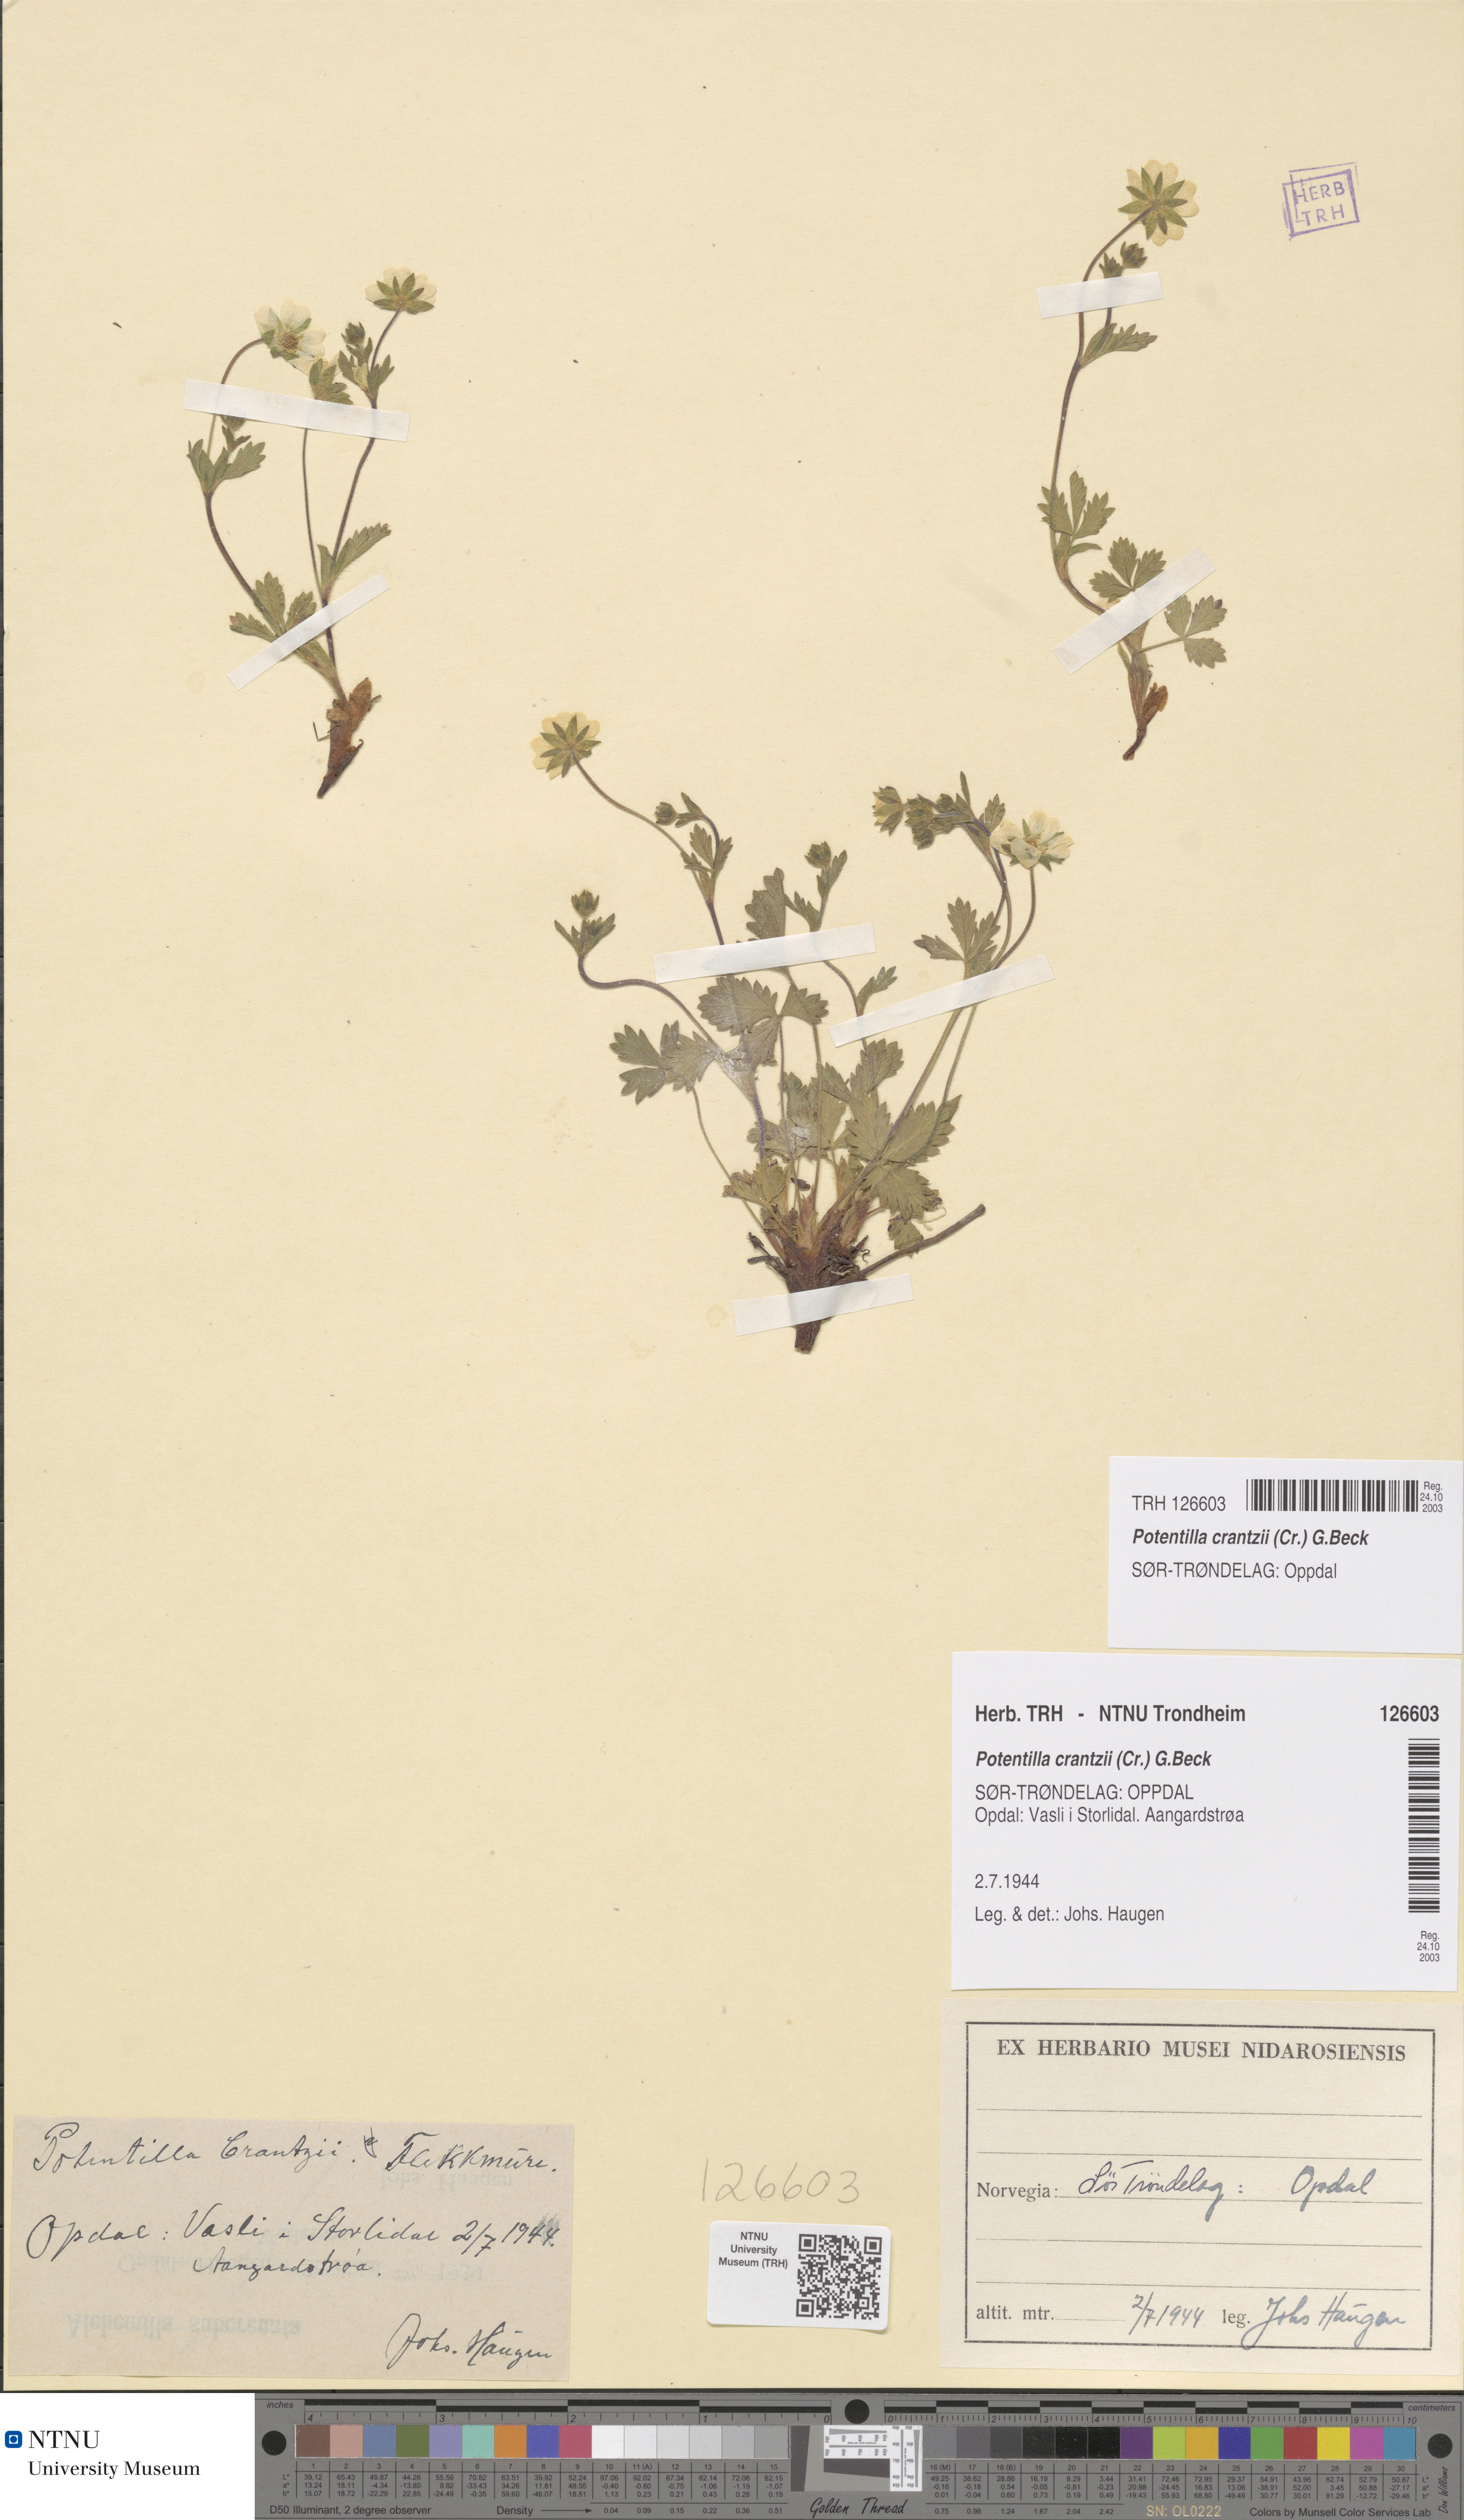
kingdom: Plantae
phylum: Tracheophyta
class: Magnoliopsida
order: Rosales
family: Rosaceae
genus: Potentilla
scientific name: Potentilla crantzii
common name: Alpine cinquefoil
